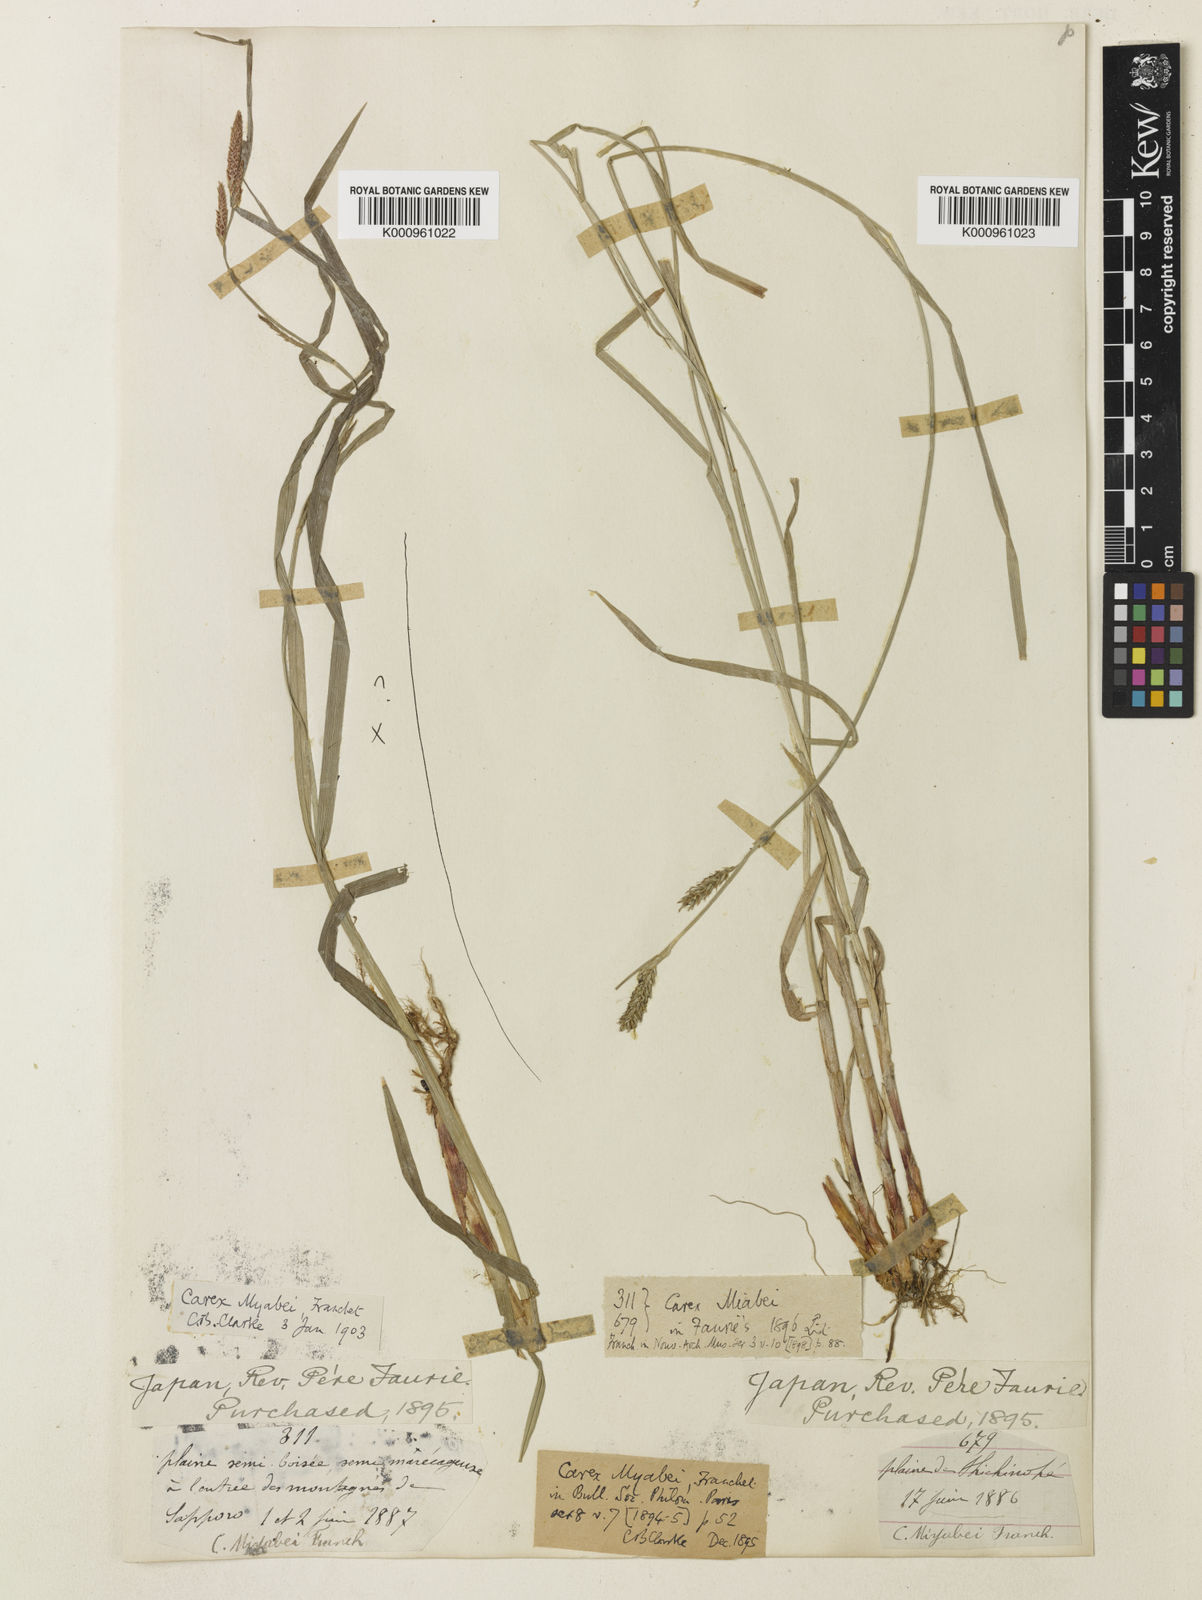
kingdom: Plantae
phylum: Tracheophyta
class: Liliopsida
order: Poales
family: Cyperaceae
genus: Carex
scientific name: Carex wallichiana
